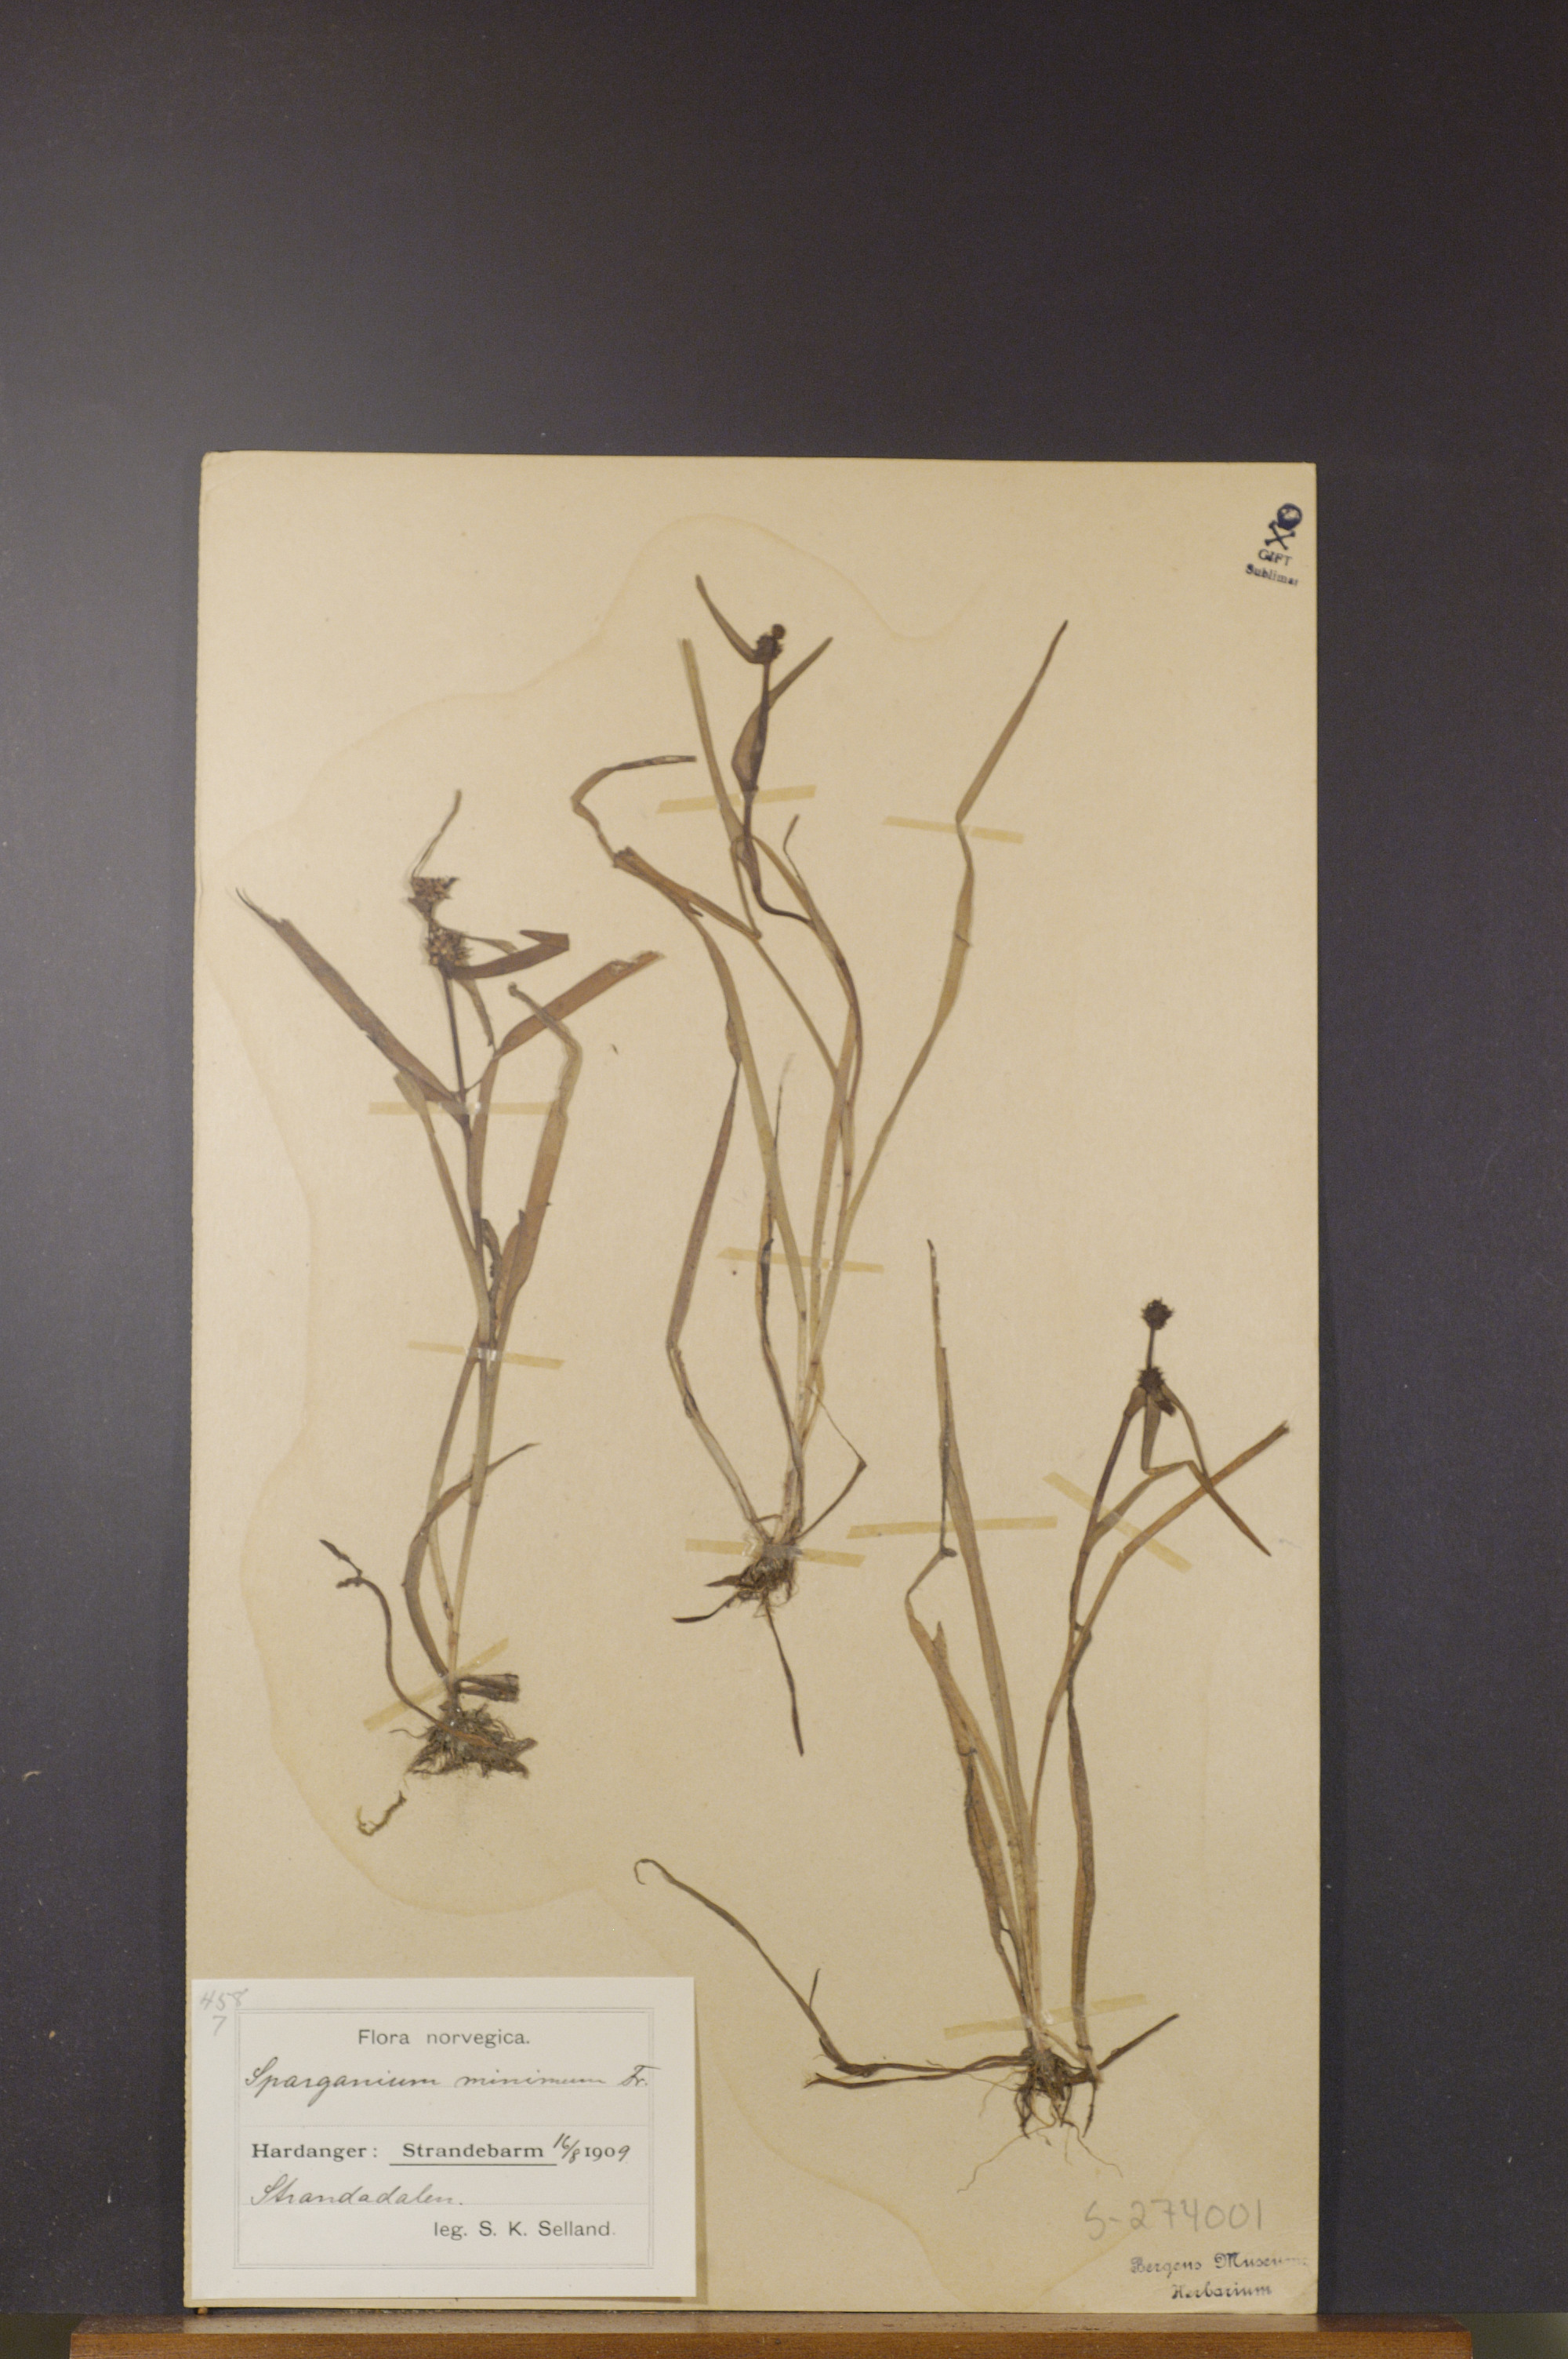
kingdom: Plantae
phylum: Tracheophyta
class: Liliopsida
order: Poales
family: Typhaceae
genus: Sparganium
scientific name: Sparganium natans
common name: Least bur-reed
